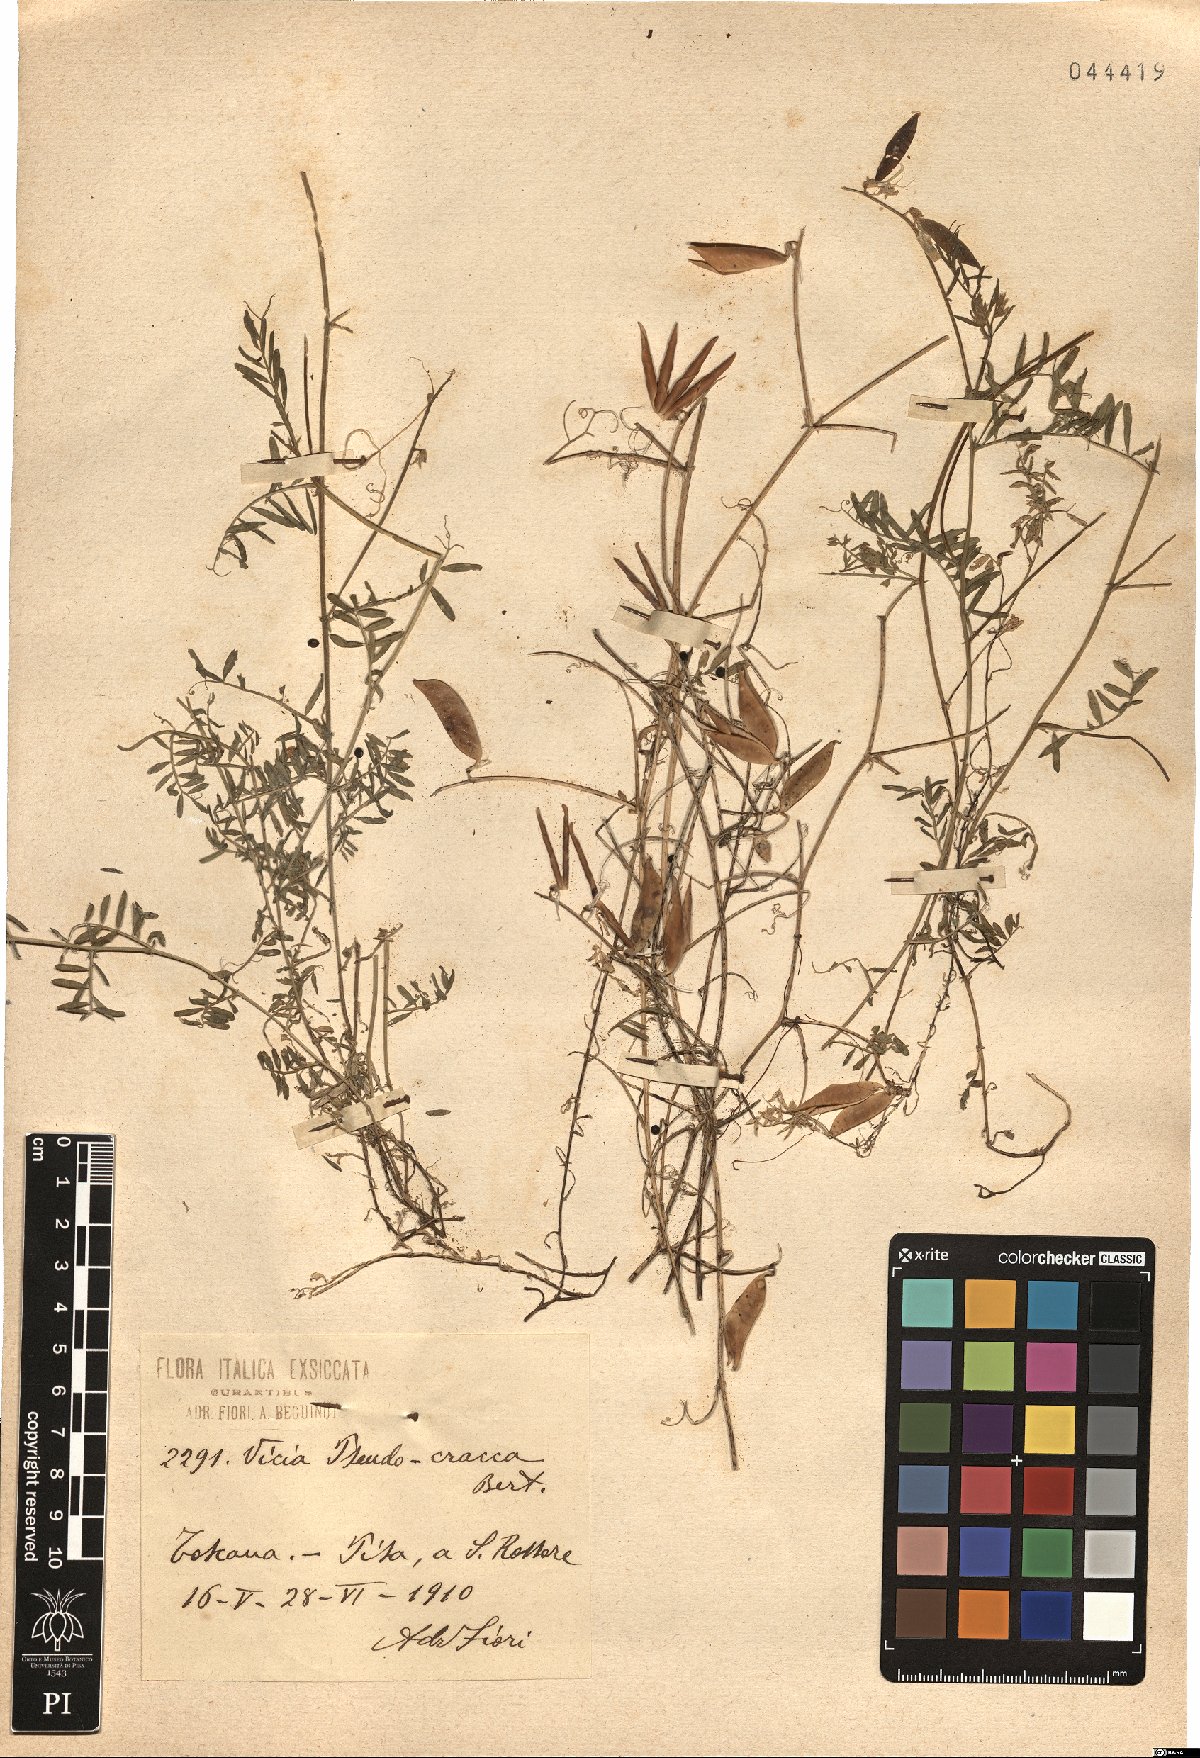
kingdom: Plantae
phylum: Tracheophyta
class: Magnoliopsida
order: Fabales
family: Fabaceae
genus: Vicia
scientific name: Vicia villosa
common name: Fodder vetch
